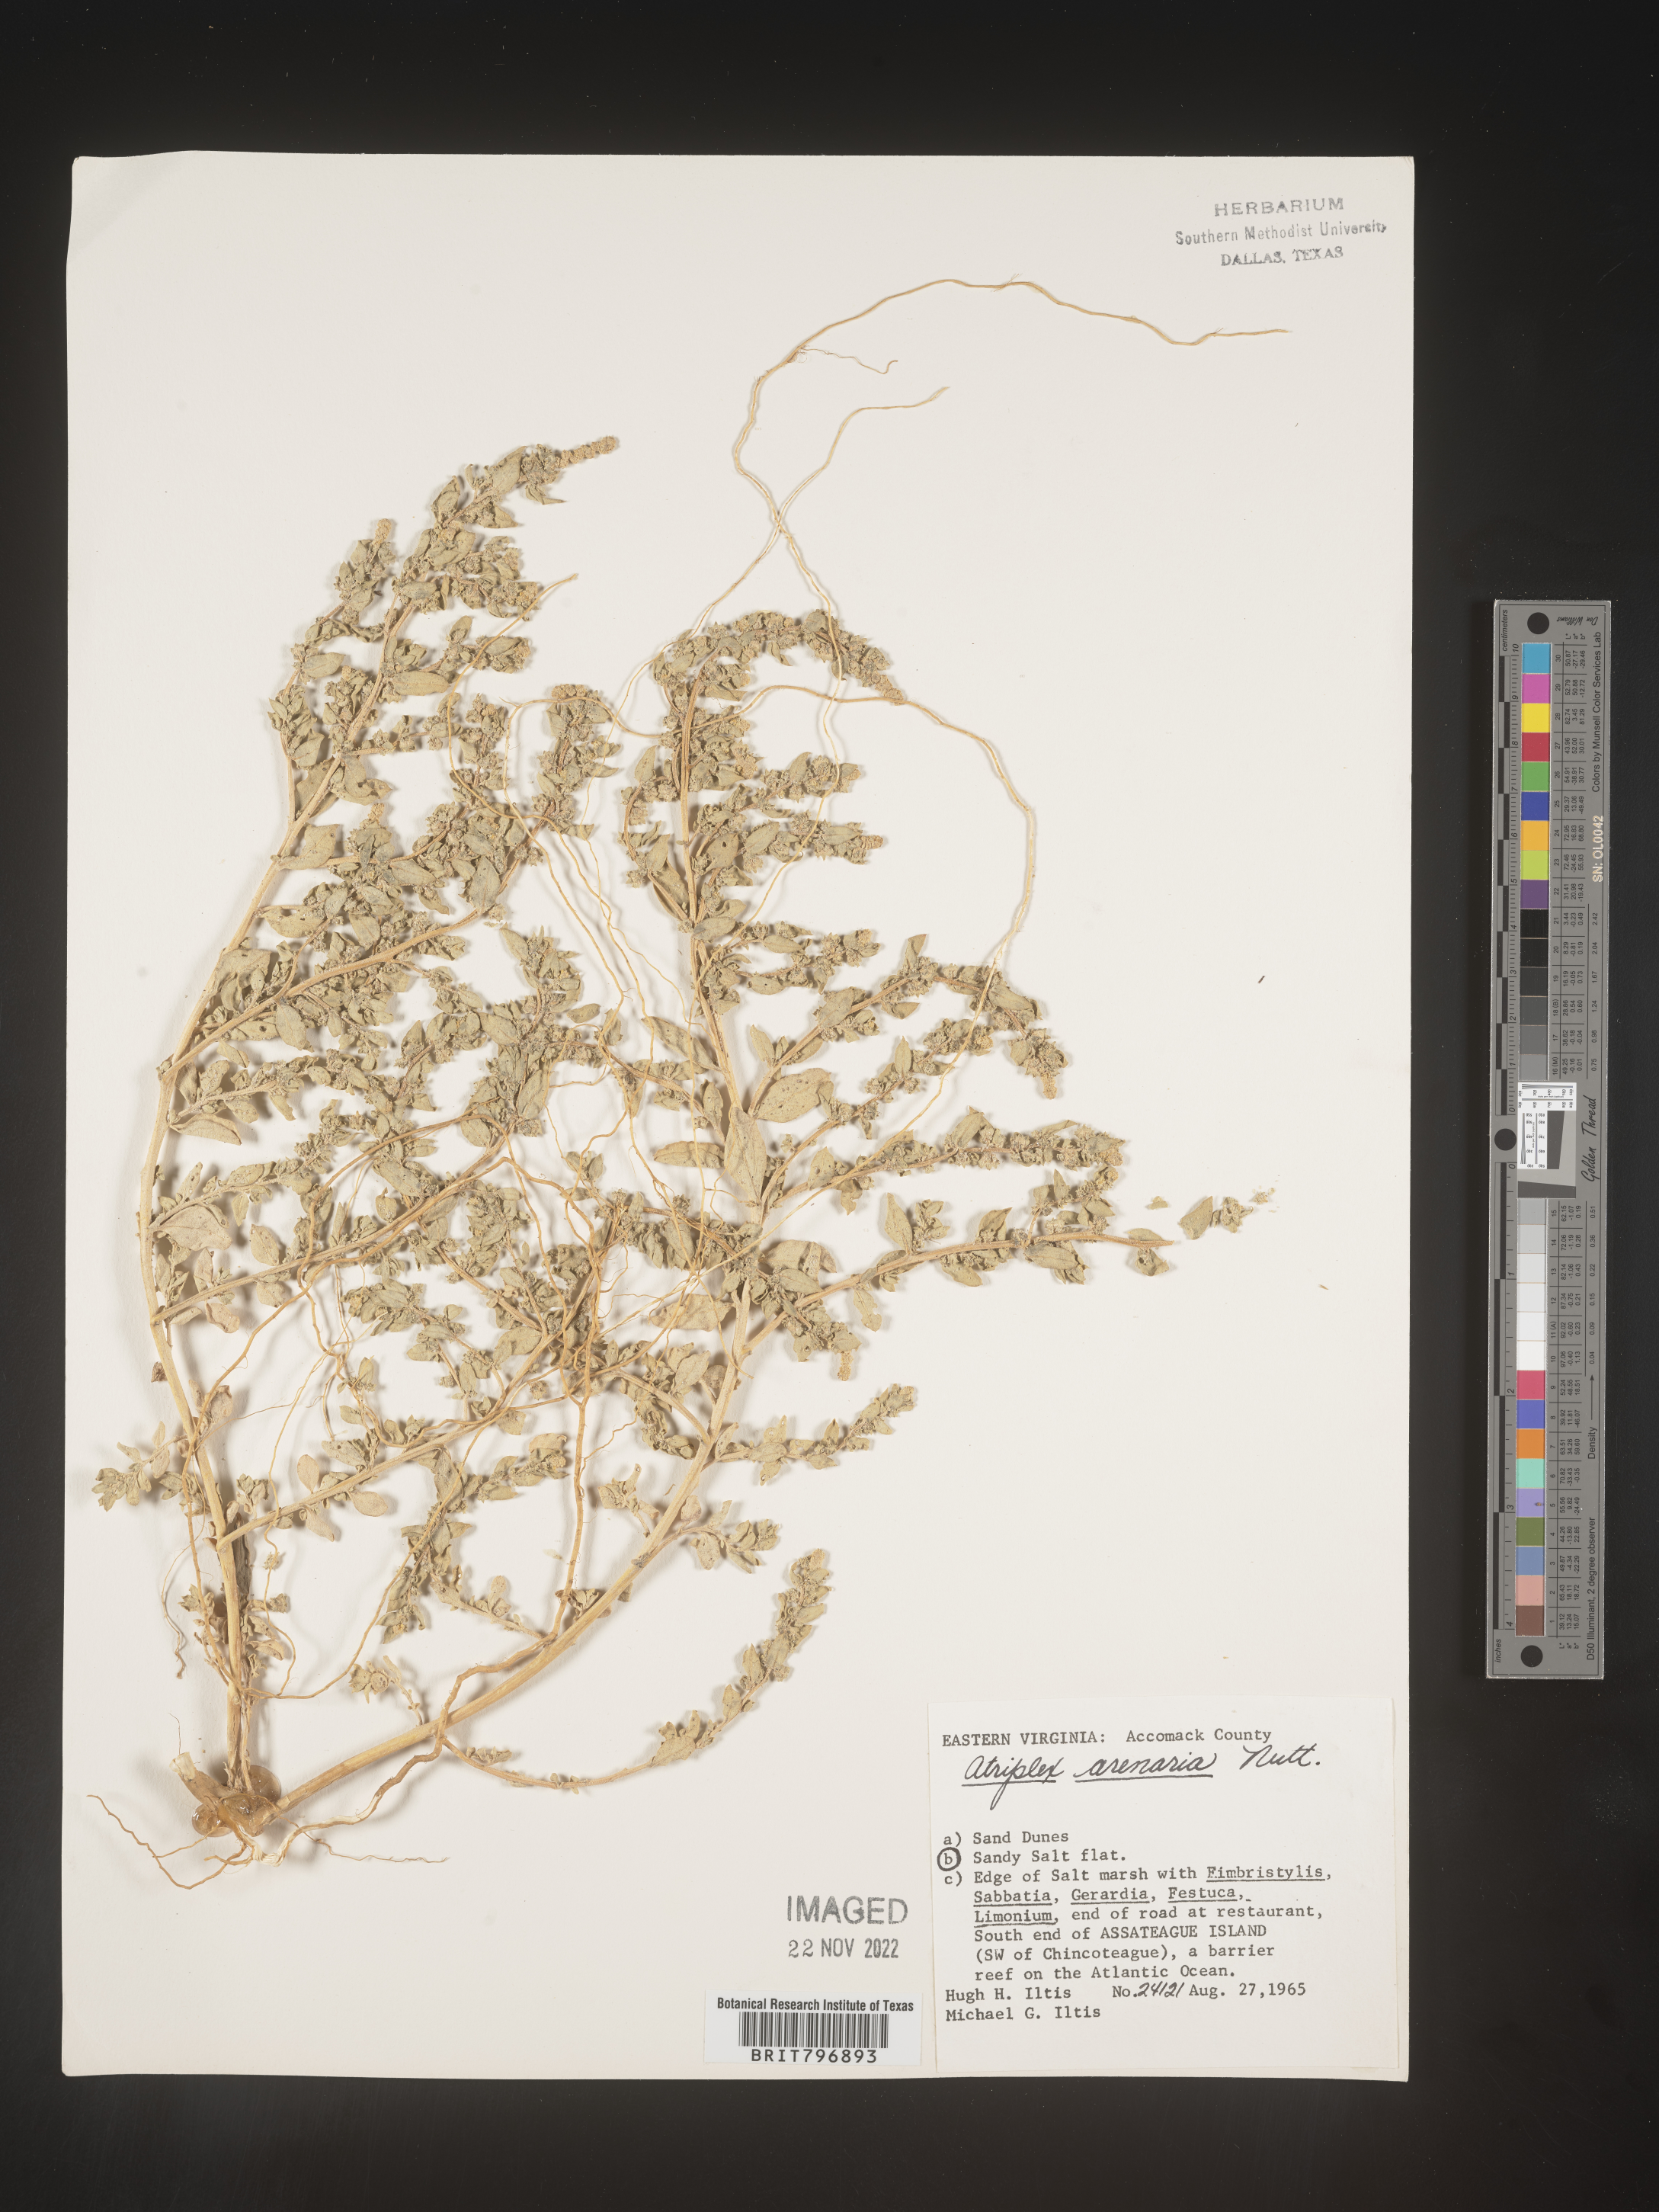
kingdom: Plantae
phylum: Tracheophyta
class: Magnoliopsida
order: Caryophyllales
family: Amaranthaceae
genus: Atriplex
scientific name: Atriplex mucronata
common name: Quelite
